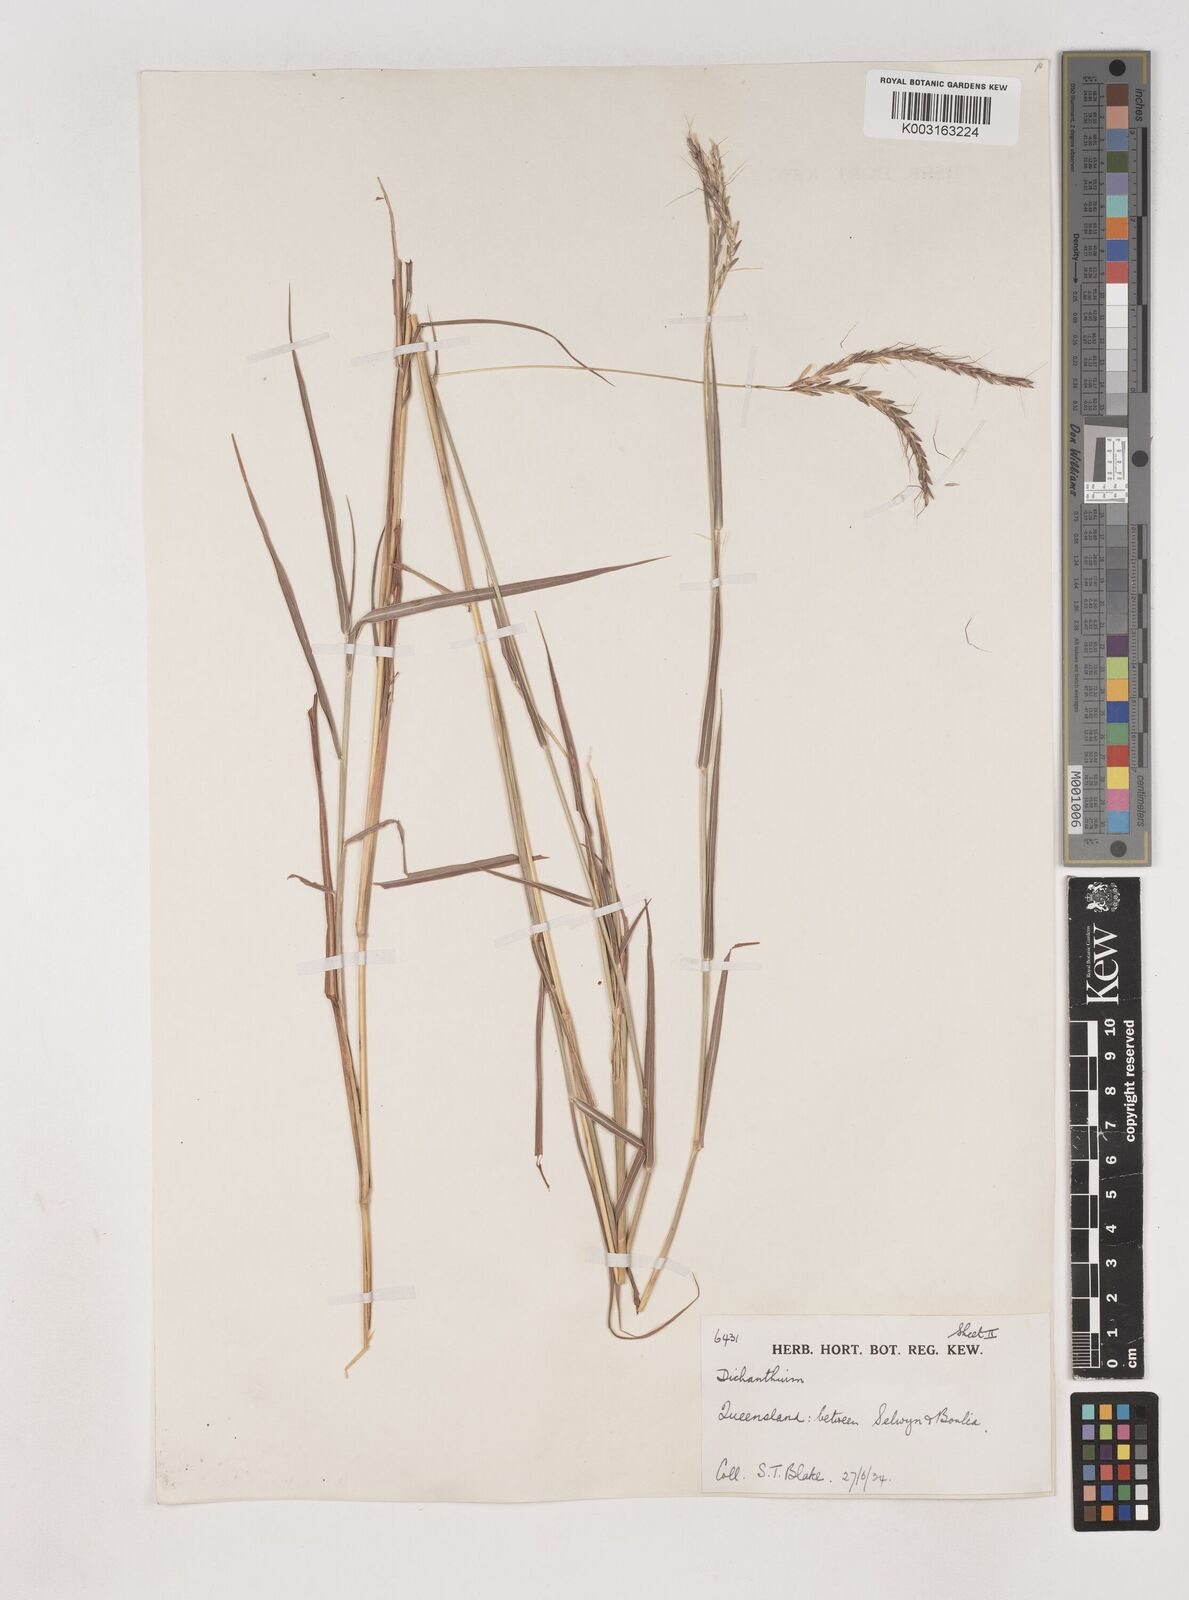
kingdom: Plantae
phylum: Tracheophyta
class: Liliopsida
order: Poales
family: Poaceae
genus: Dichanthium
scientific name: Dichanthium fecundum
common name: Bundle-bundle
